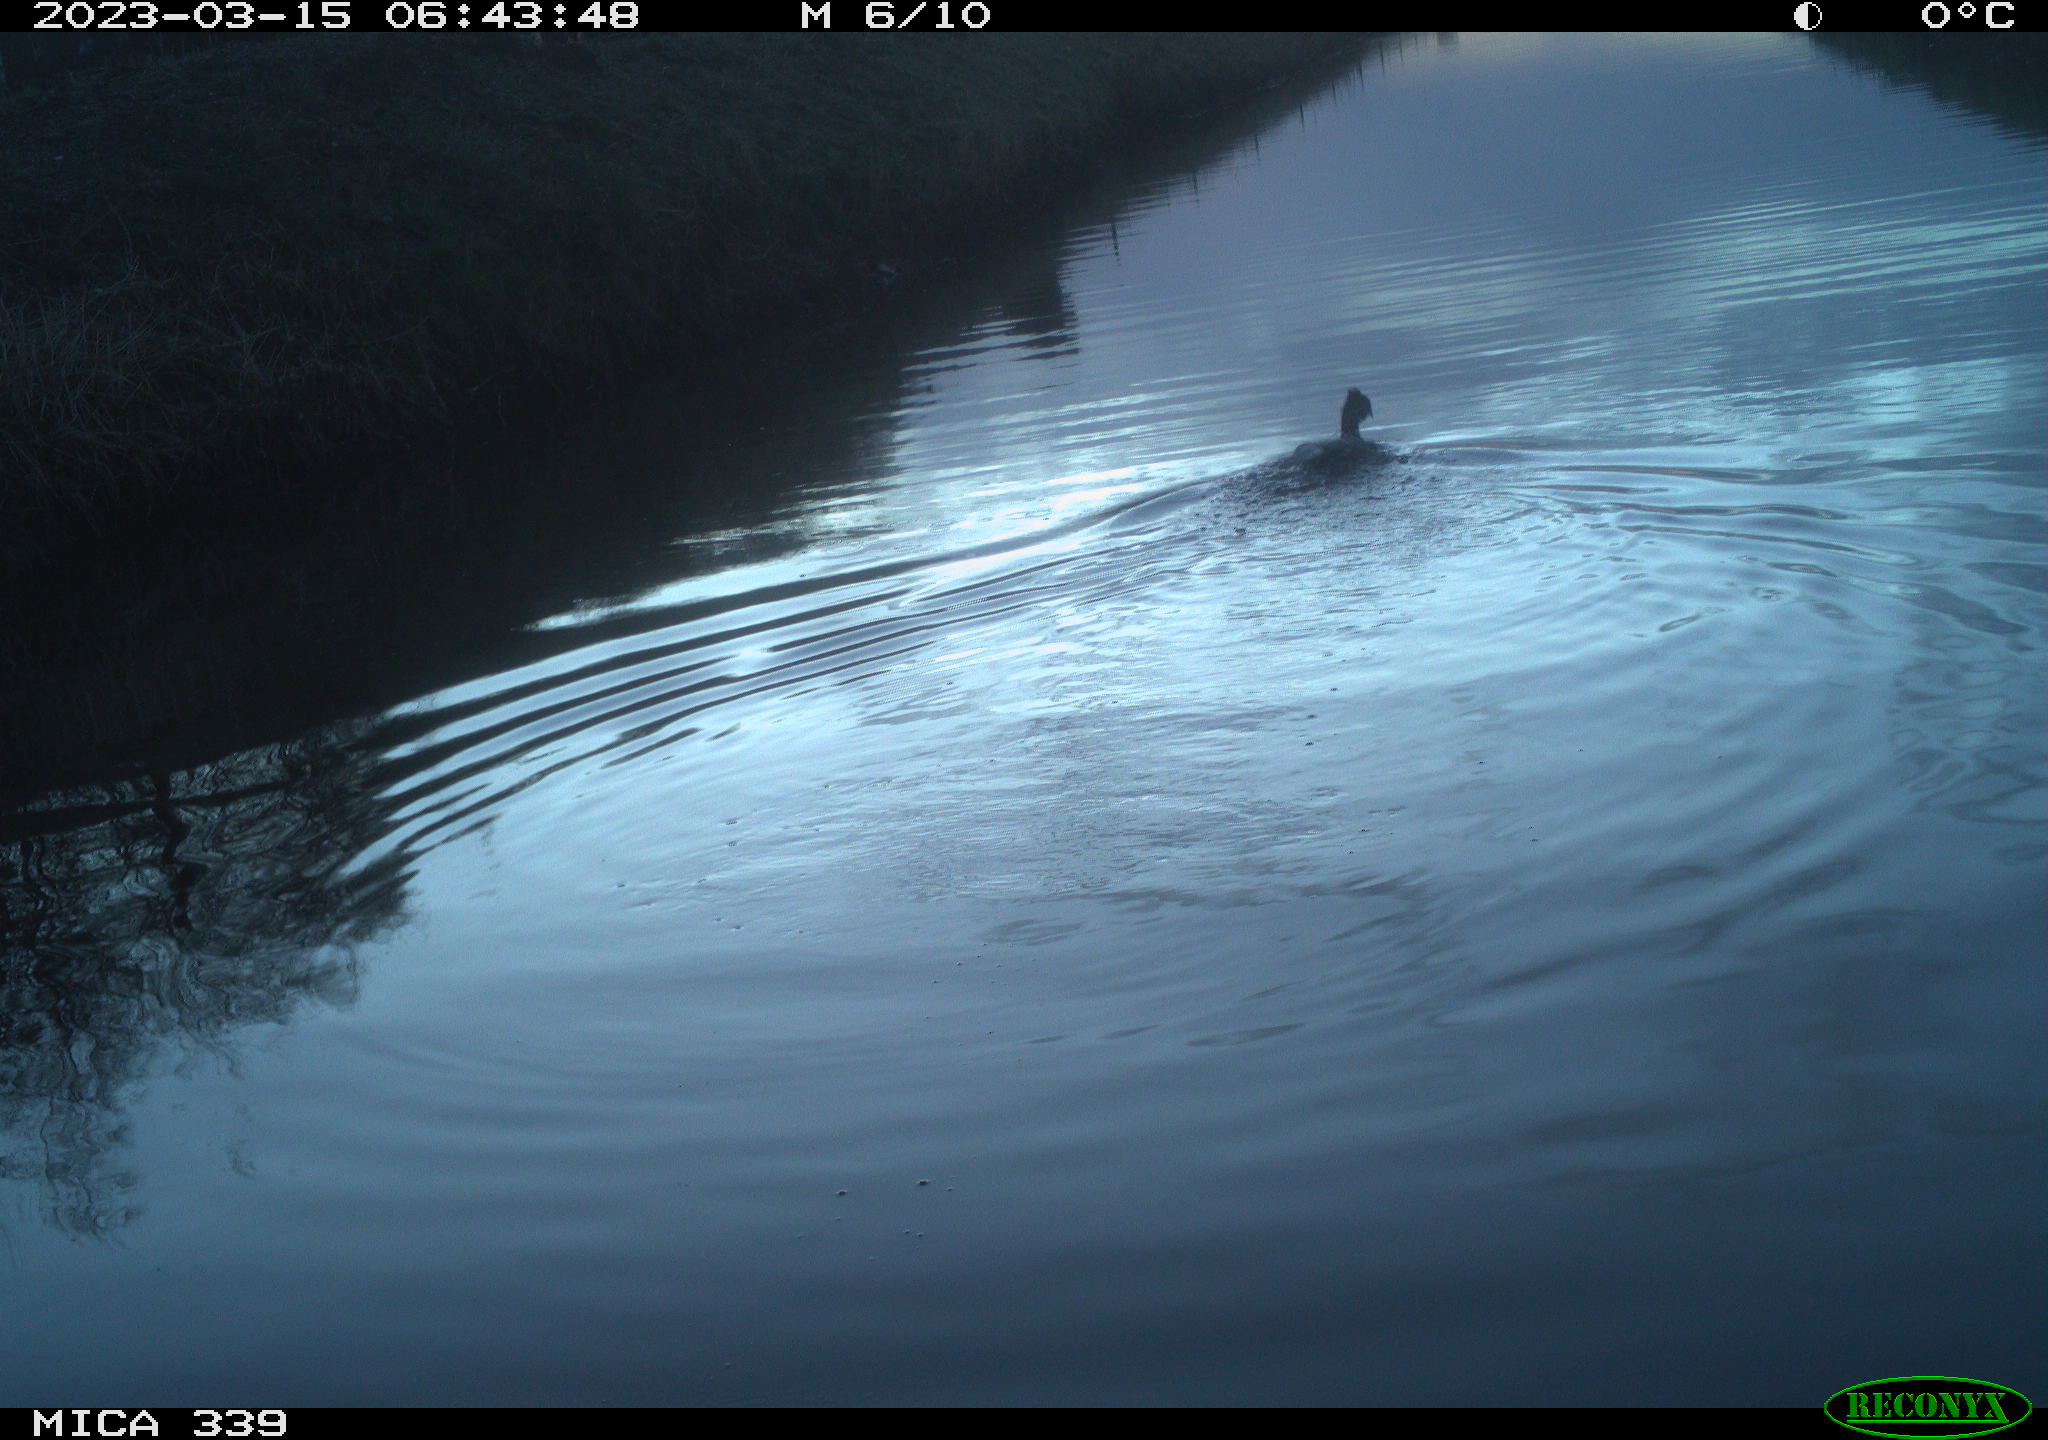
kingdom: Animalia
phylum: Chordata
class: Aves
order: Anseriformes
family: Anatidae
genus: Anas
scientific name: Anas
